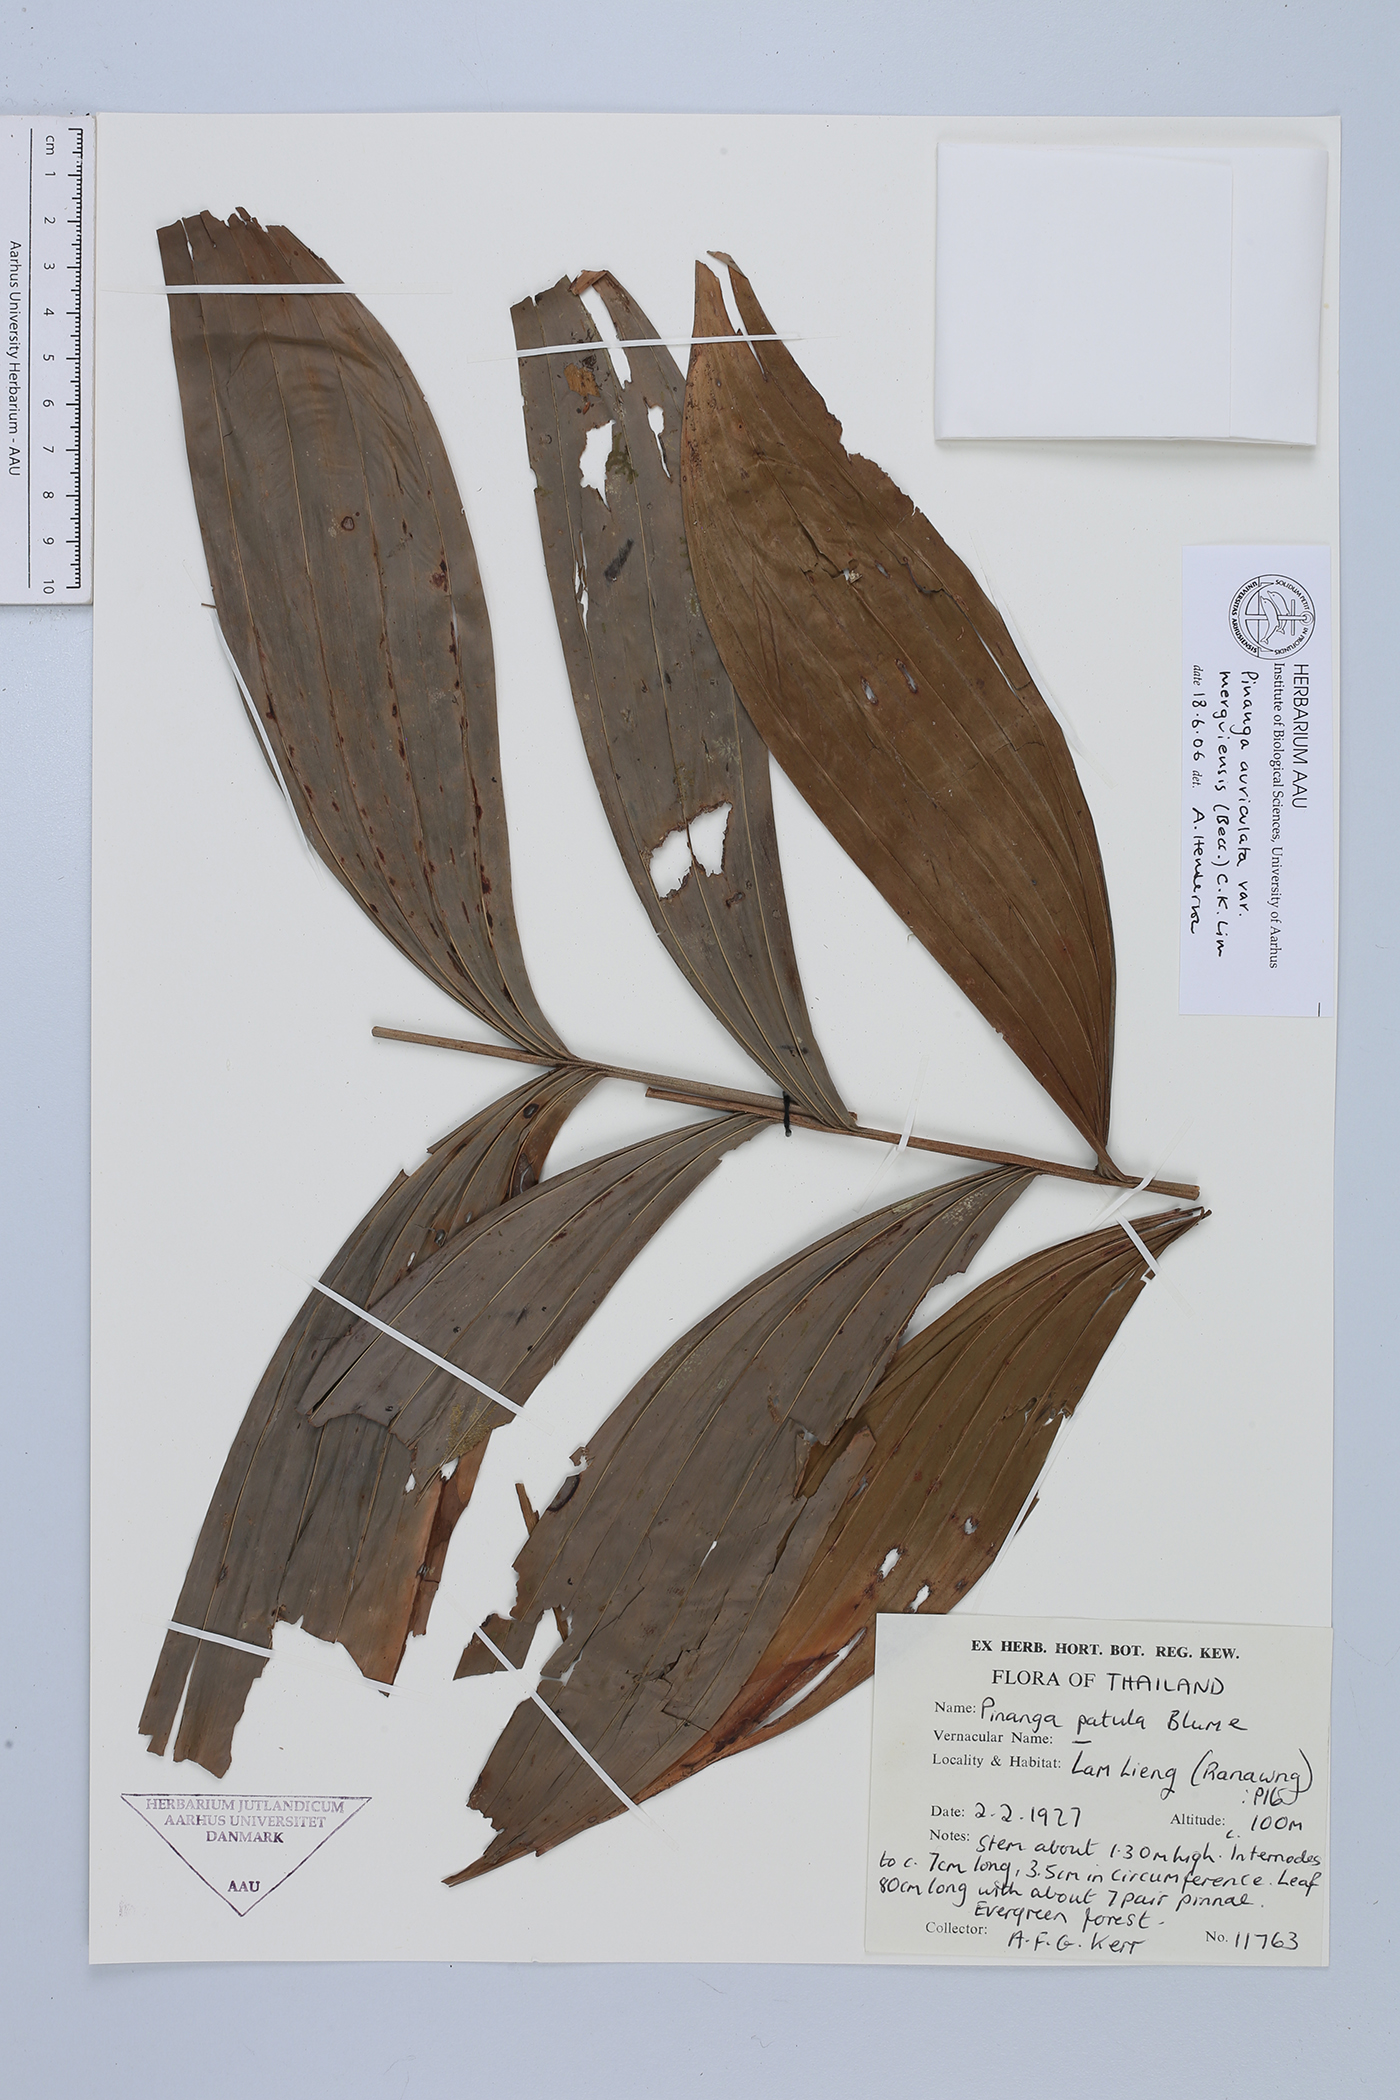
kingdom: Plantae
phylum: Tracheophyta
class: Liliopsida
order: Arecales
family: Arecaceae
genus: Pinanga
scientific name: Pinanga auriculata
